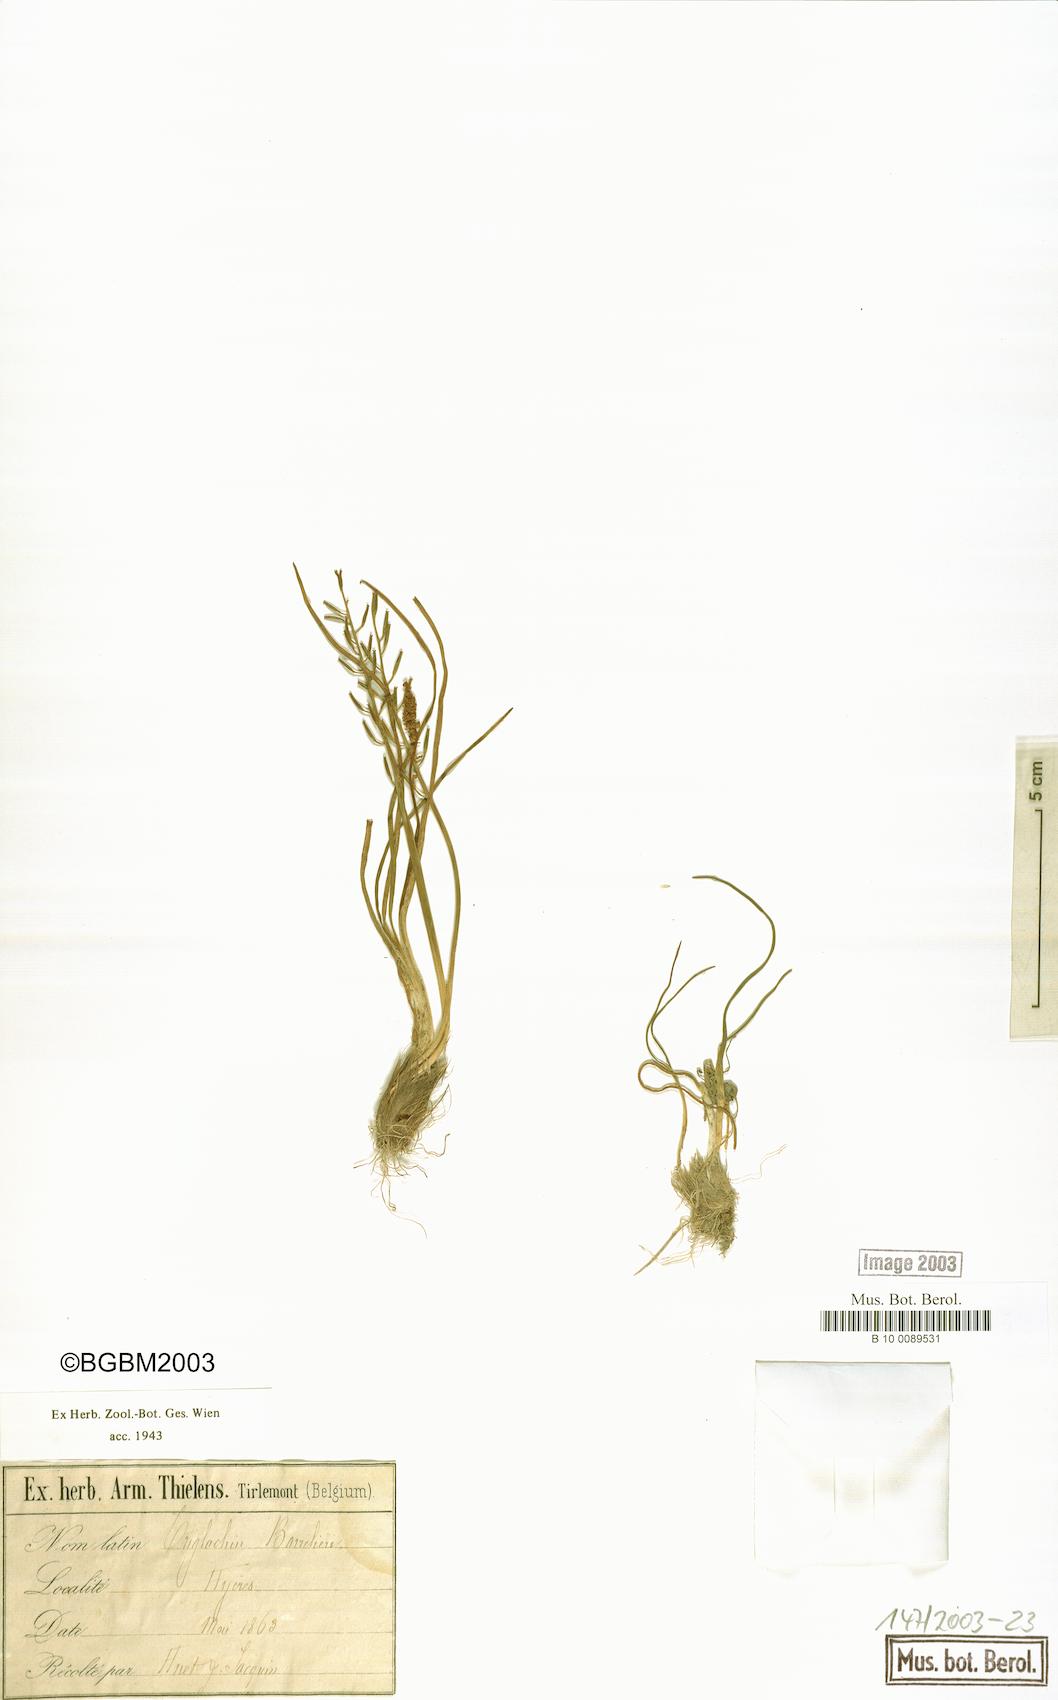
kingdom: Plantae
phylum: Tracheophyta
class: Liliopsida
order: Alismatales
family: Juncaginaceae
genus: Triglochin
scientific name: Triglochin bulbosa
